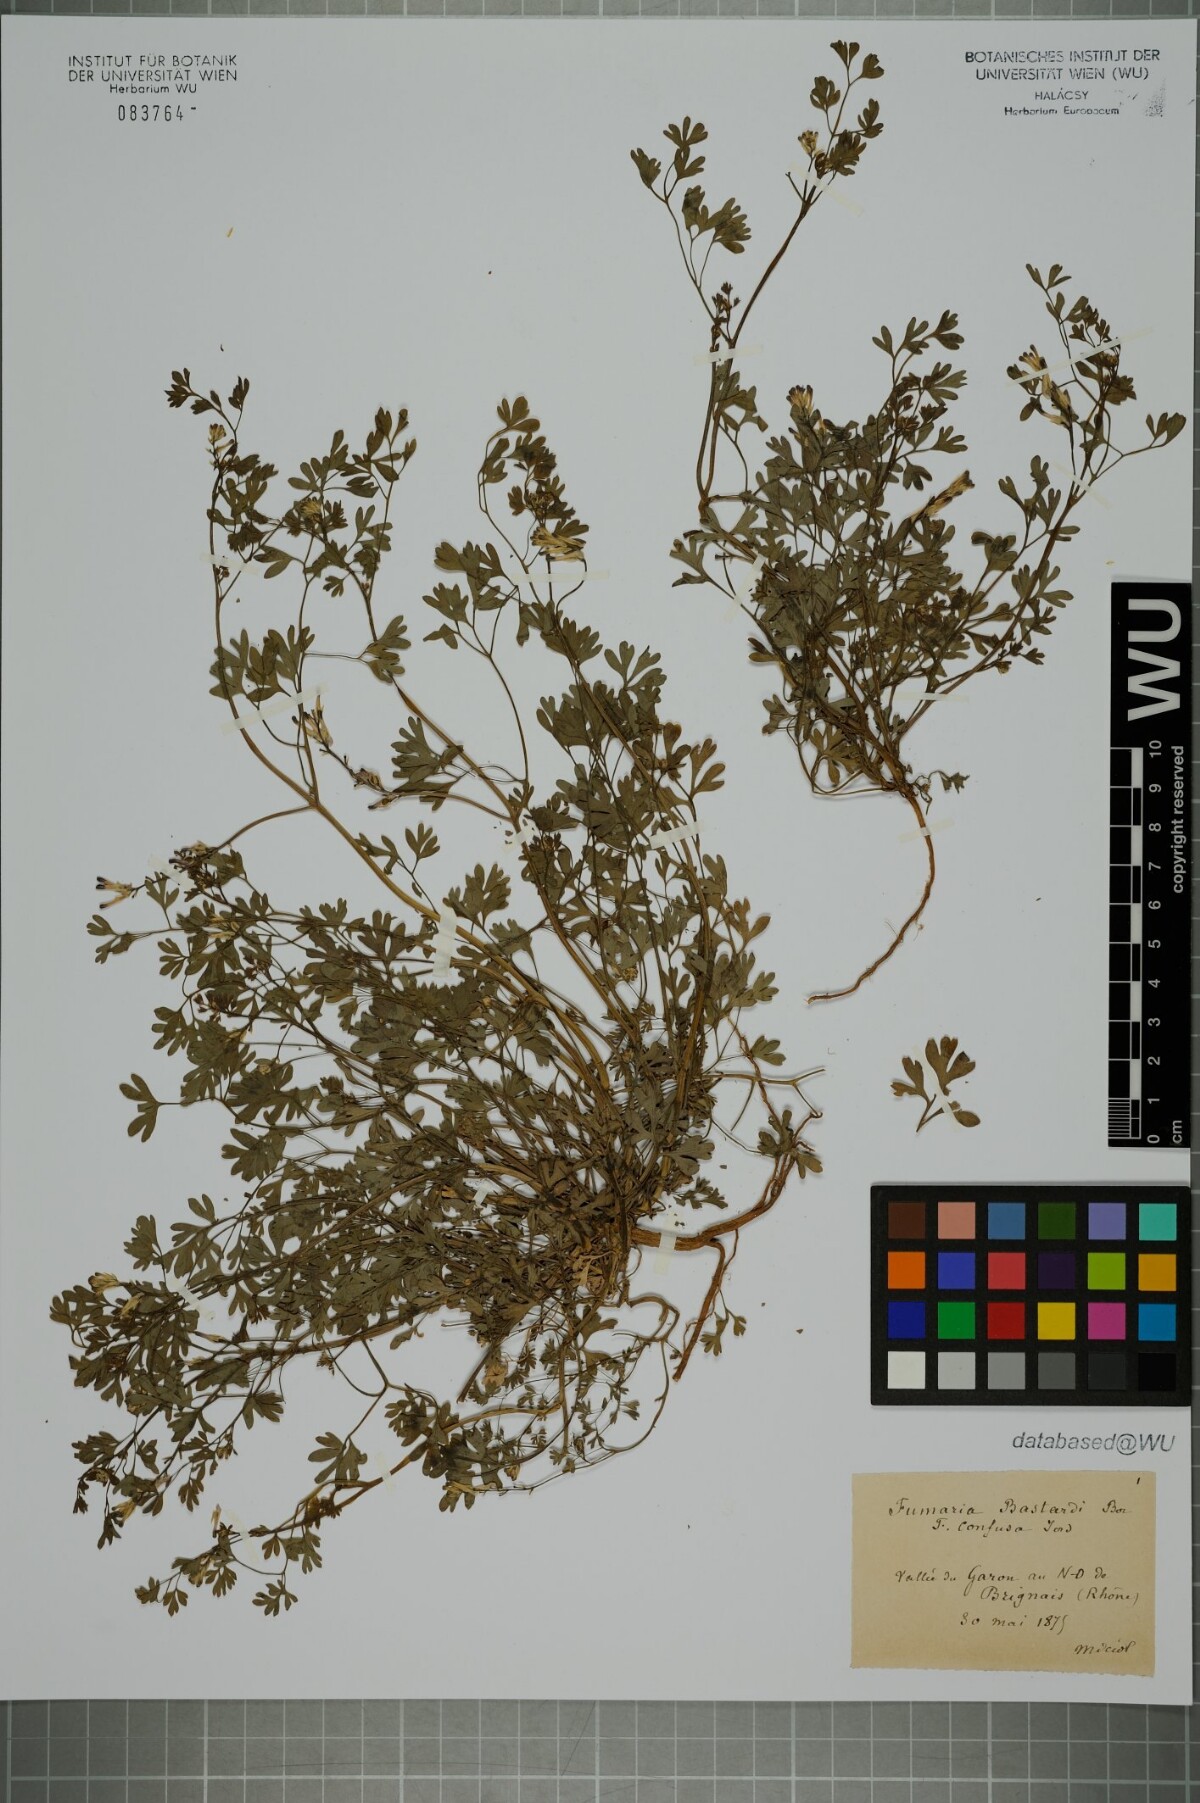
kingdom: Plantae
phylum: Tracheophyta
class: Magnoliopsida
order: Ranunculales
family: Papaveraceae
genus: Fumaria
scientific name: Fumaria bastardii
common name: Tall ramping-fumitory
